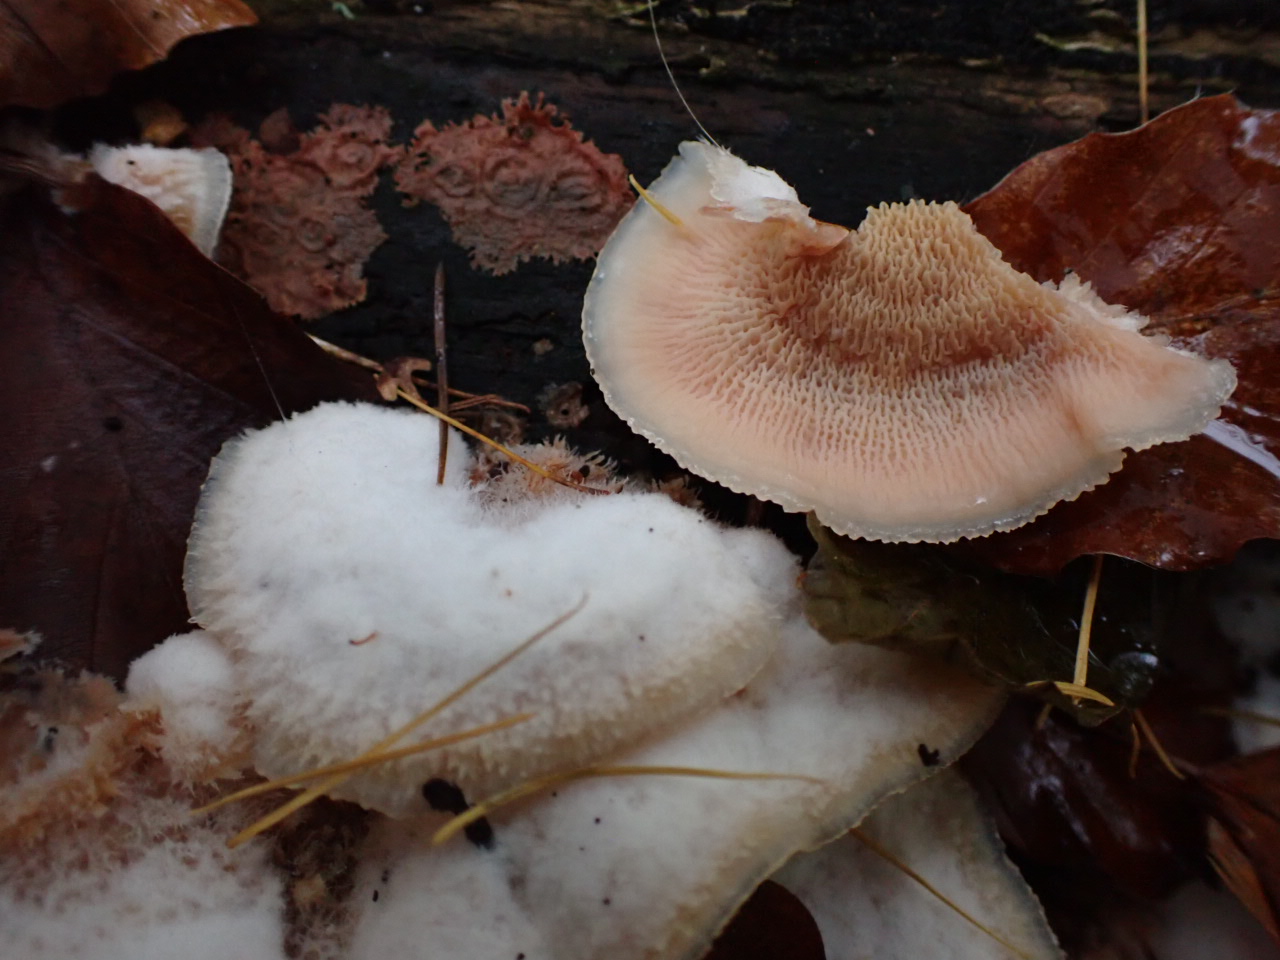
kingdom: Fungi
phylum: Basidiomycota
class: Agaricomycetes
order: Polyporales
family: Meruliaceae
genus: Phlebia
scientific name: Phlebia tremellosa
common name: bævrende åresvamp
